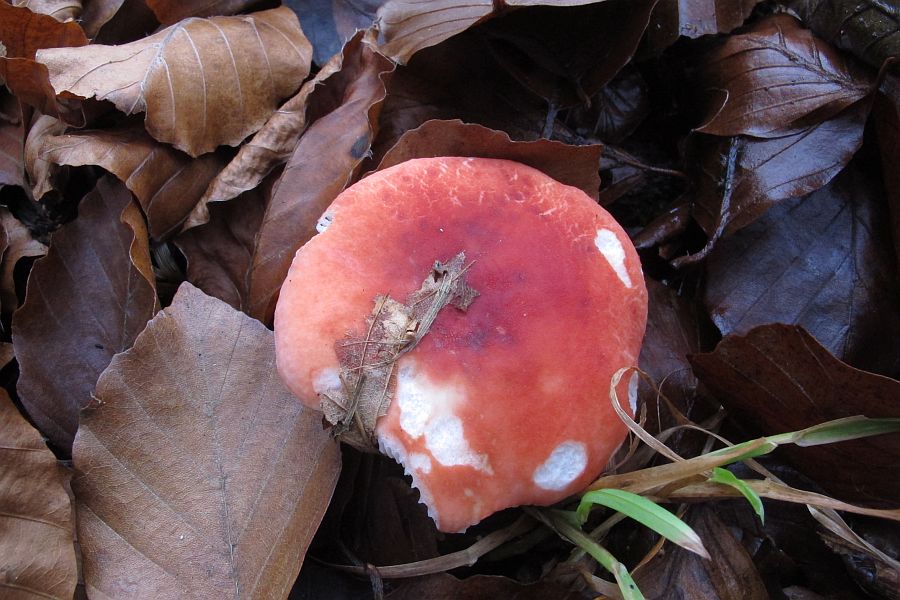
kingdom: Fungi
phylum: Basidiomycota
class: Agaricomycetes
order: Russulales
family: Russulaceae
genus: Russula
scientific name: Russula emetica
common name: stor gift-skørhat
